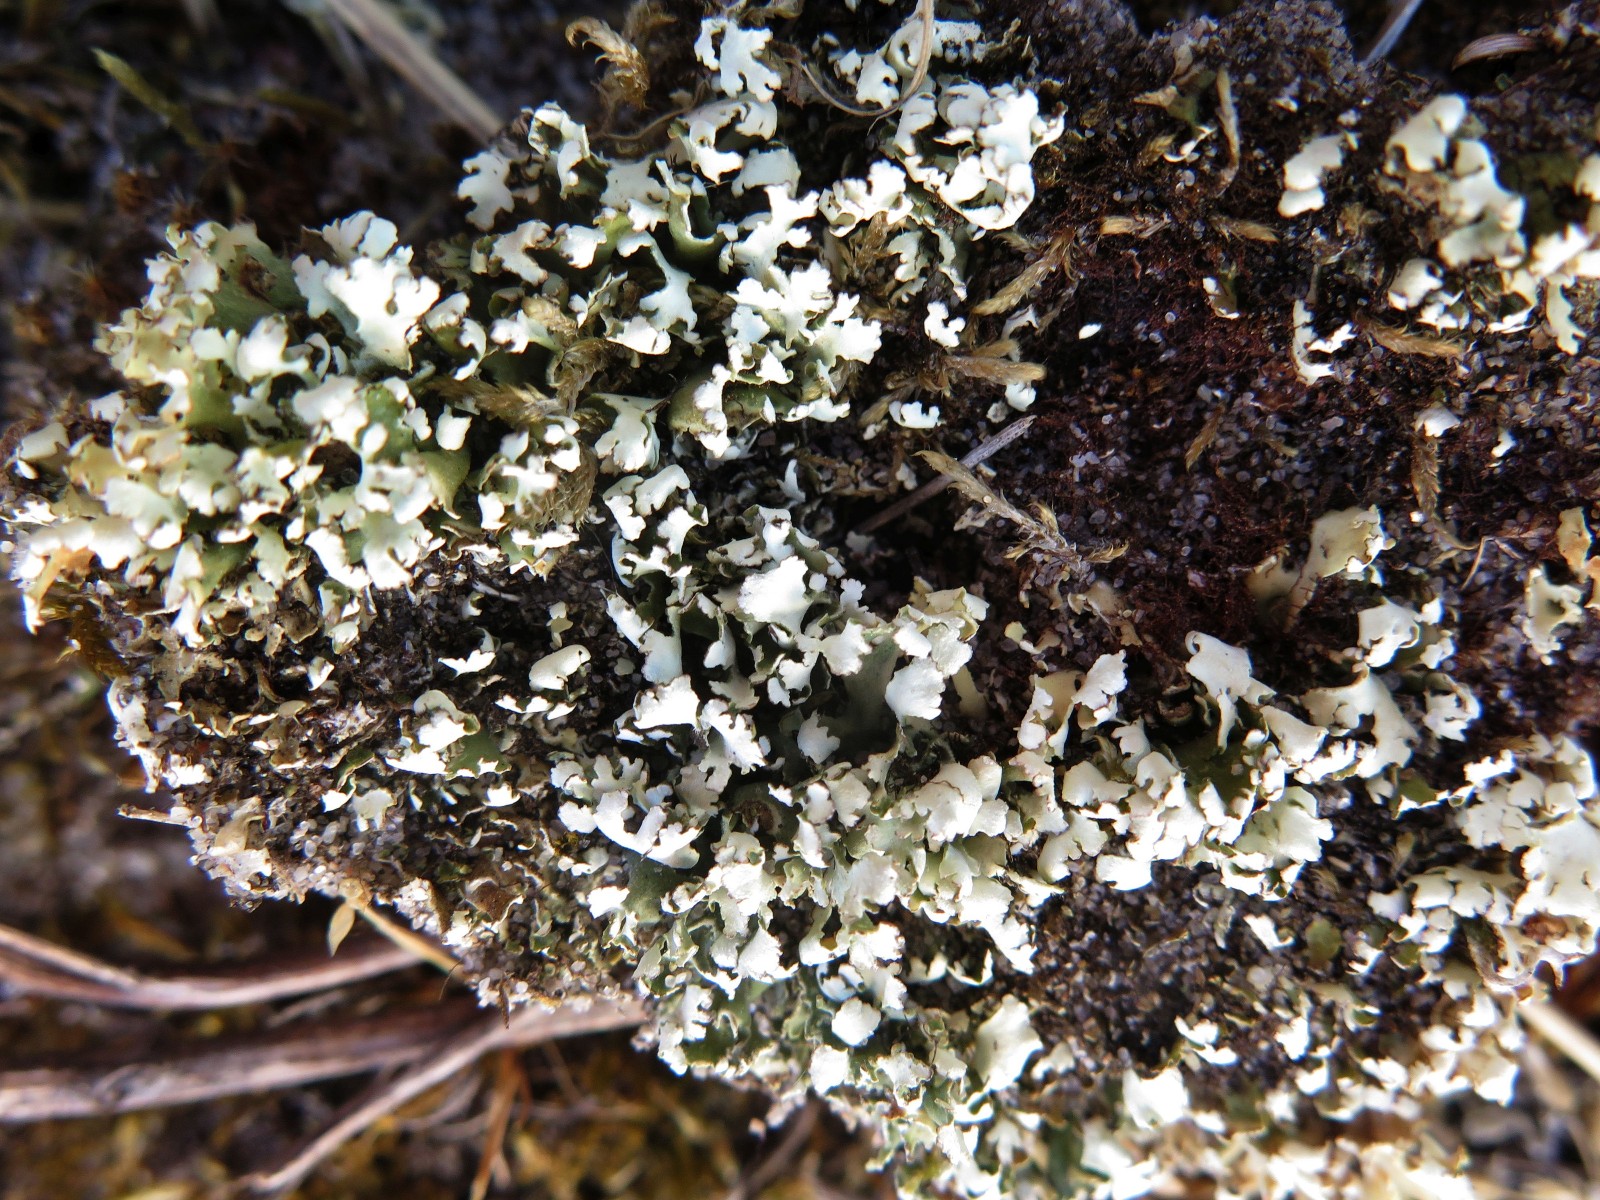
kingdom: Fungi
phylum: Ascomycota
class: Lecanoromycetes
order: Lecanorales
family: Cladoniaceae
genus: Cladonia
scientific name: Cladonia foliacea
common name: fliget bægerlav
